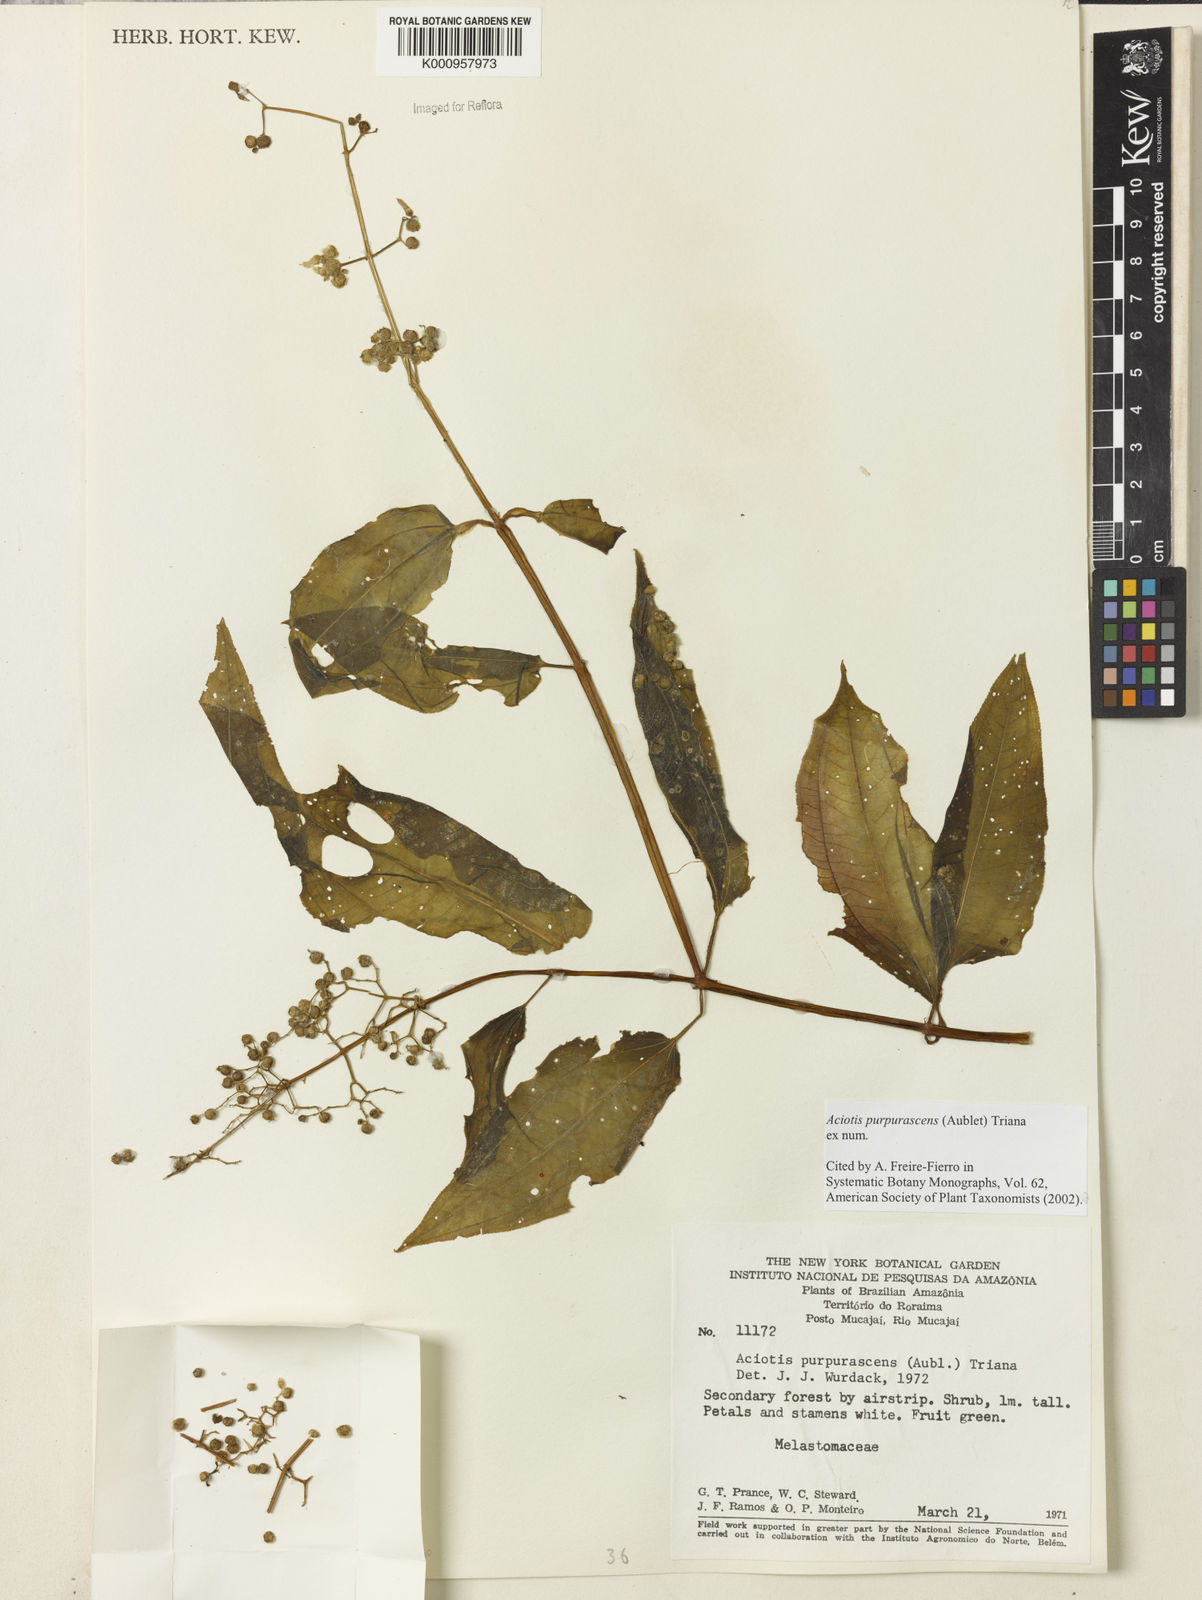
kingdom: Plantae
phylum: Tracheophyta
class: Magnoliopsida
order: Myrtales
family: Melastomataceae
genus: Aciotis
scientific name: Aciotis purpurascens
